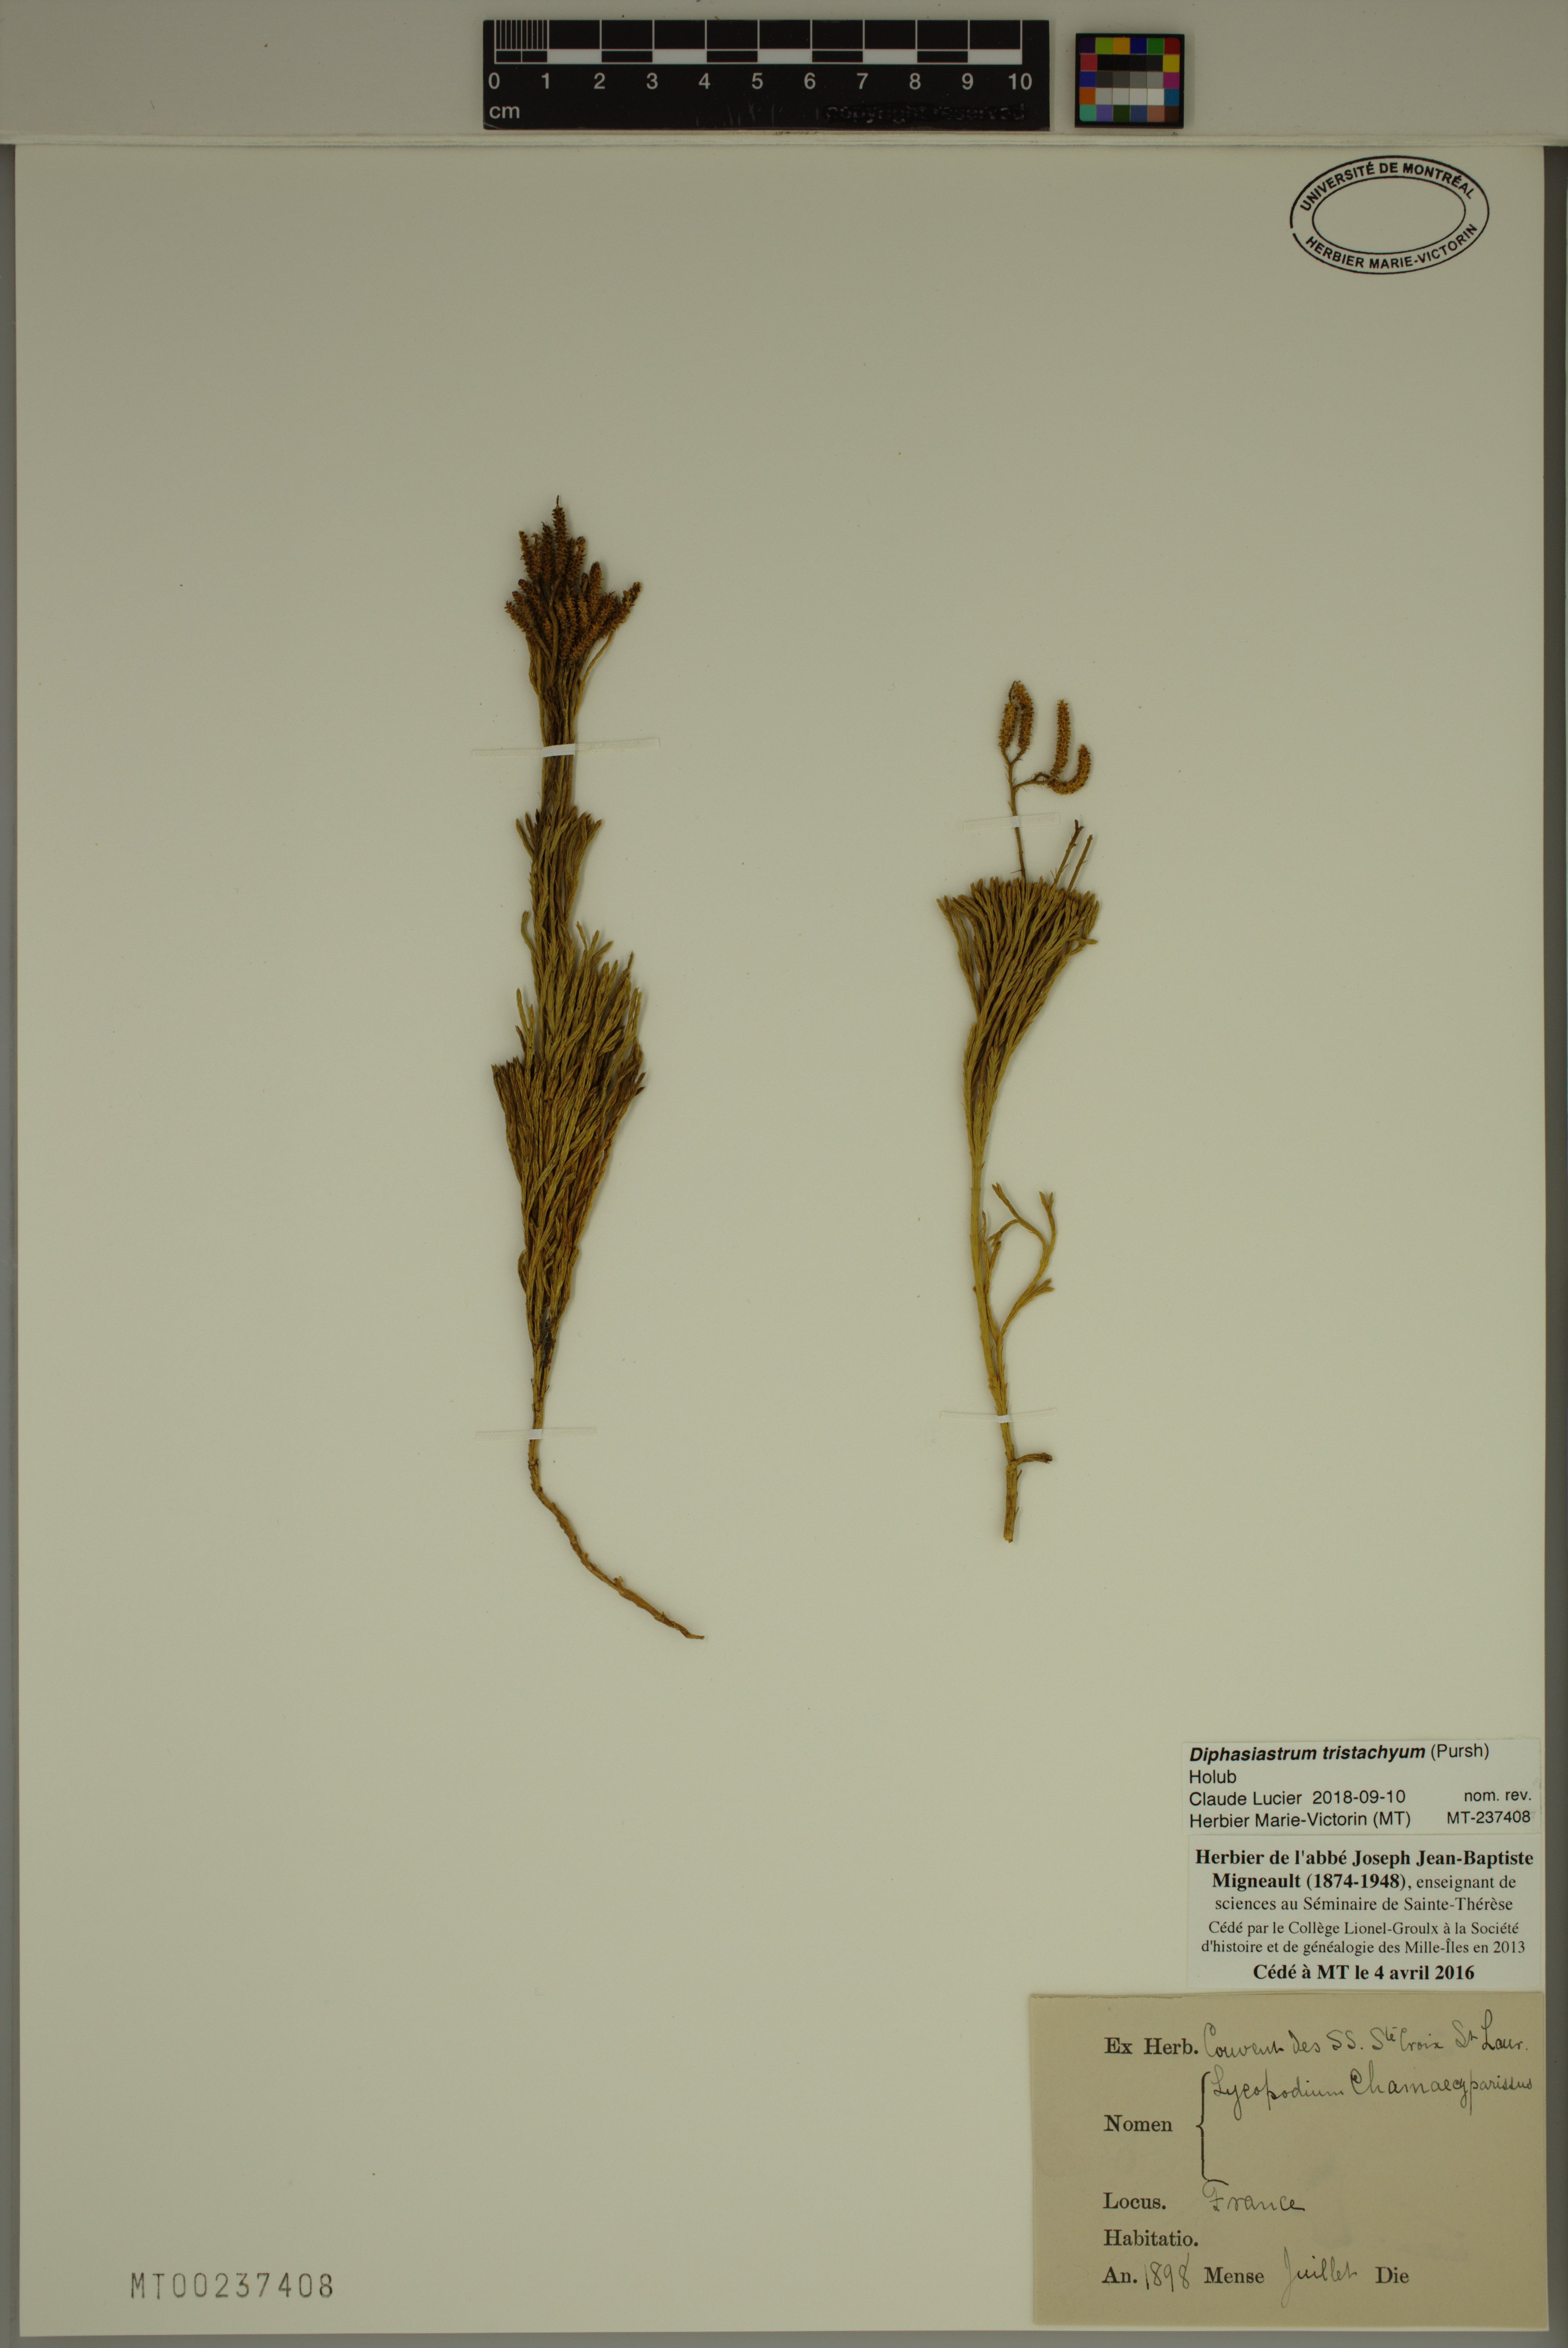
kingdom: Plantae
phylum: Tracheophyta
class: Lycopodiopsida
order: Lycopodiales
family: Lycopodiaceae
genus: Diphasiastrum
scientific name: Diphasiastrum tristachyum
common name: Blue ground-cedar
